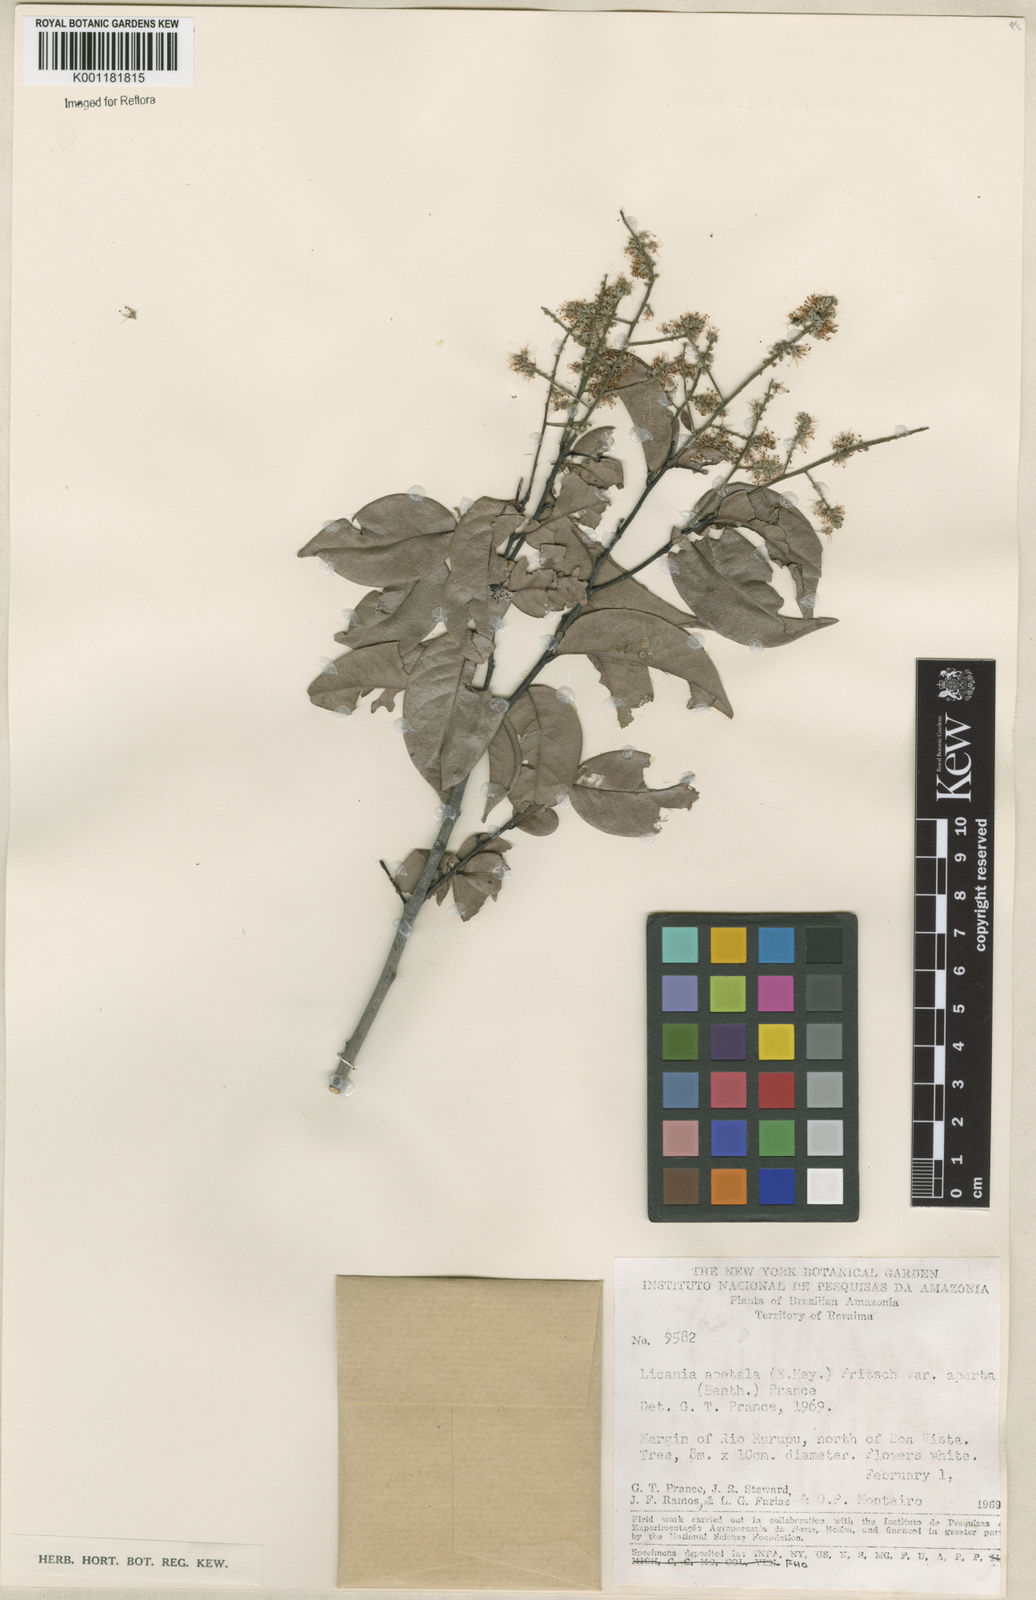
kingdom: Plantae
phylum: Tracheophyta
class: Magnoliopsida
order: Malpighiales
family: Chrysobalanaceae
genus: Leptobalanus
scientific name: Leptobalanus apetalus
